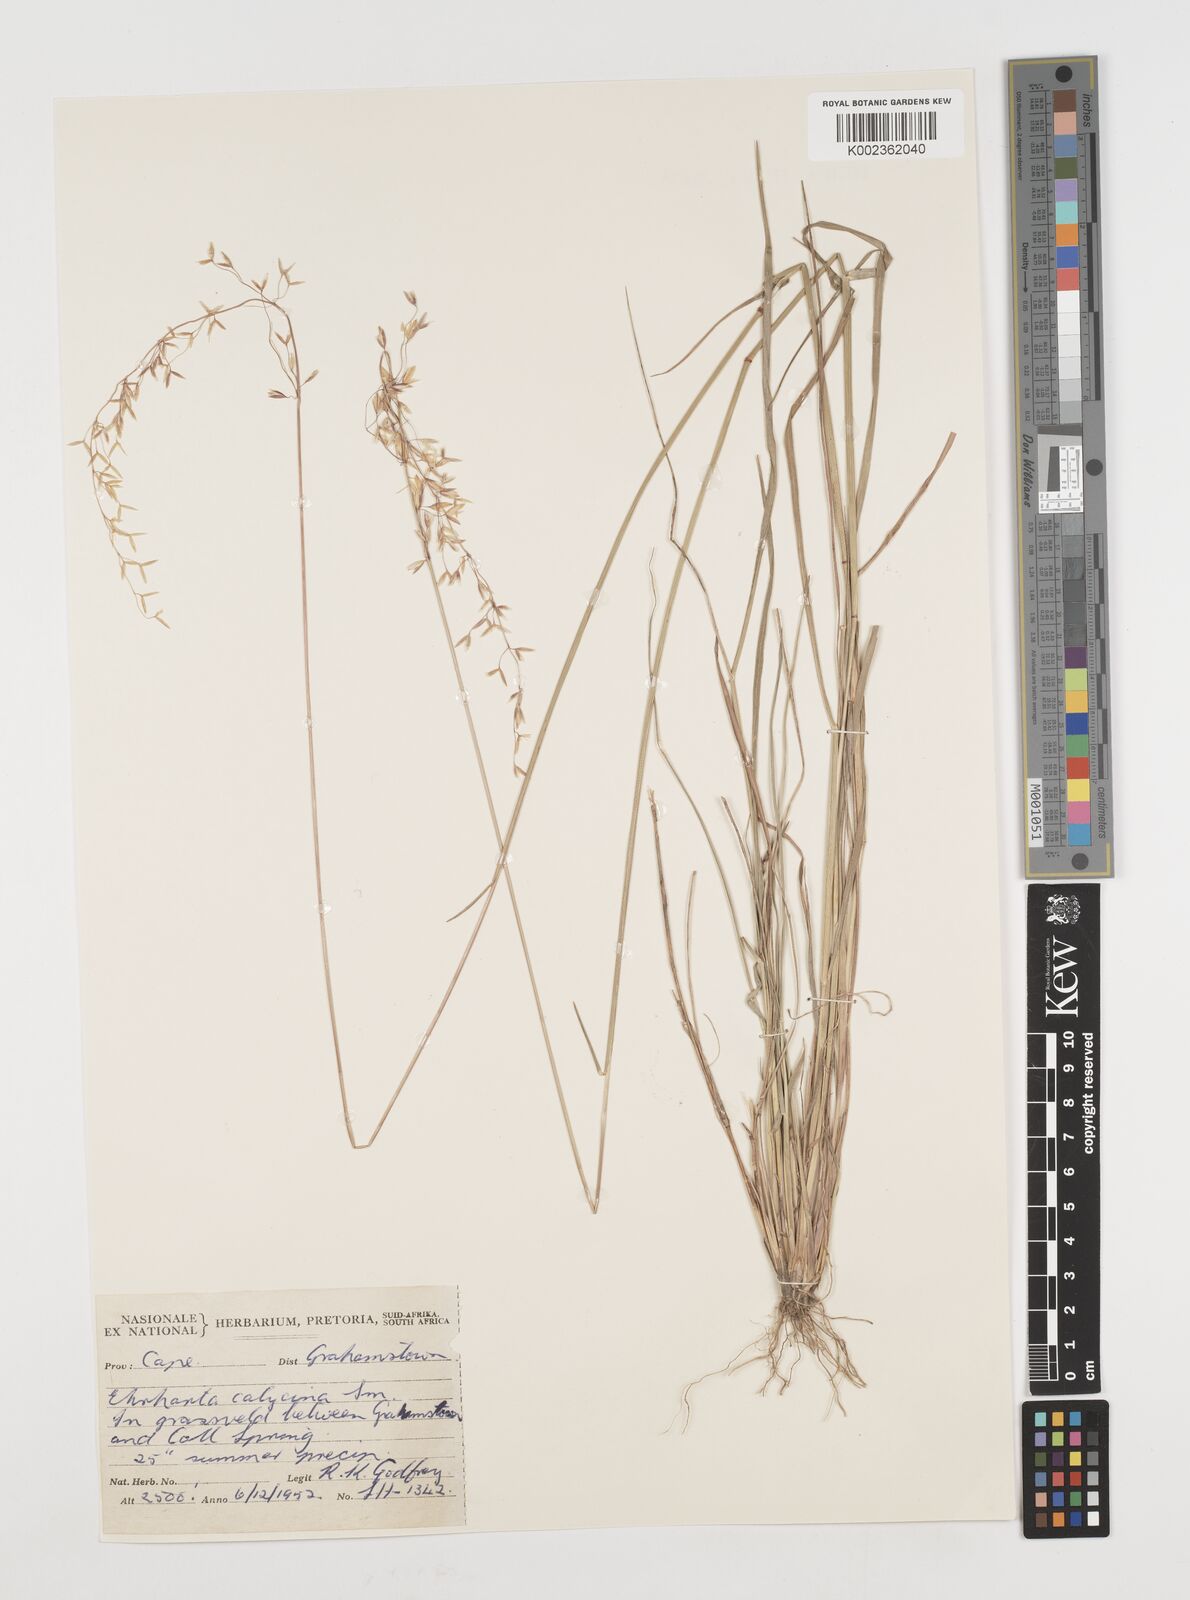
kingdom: Plantae
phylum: Tracheophyta
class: Liliopsida
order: Poales
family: Poaceae
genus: Ehrharta
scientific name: Ehrharta calycina
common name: Perennial veldtgrass
